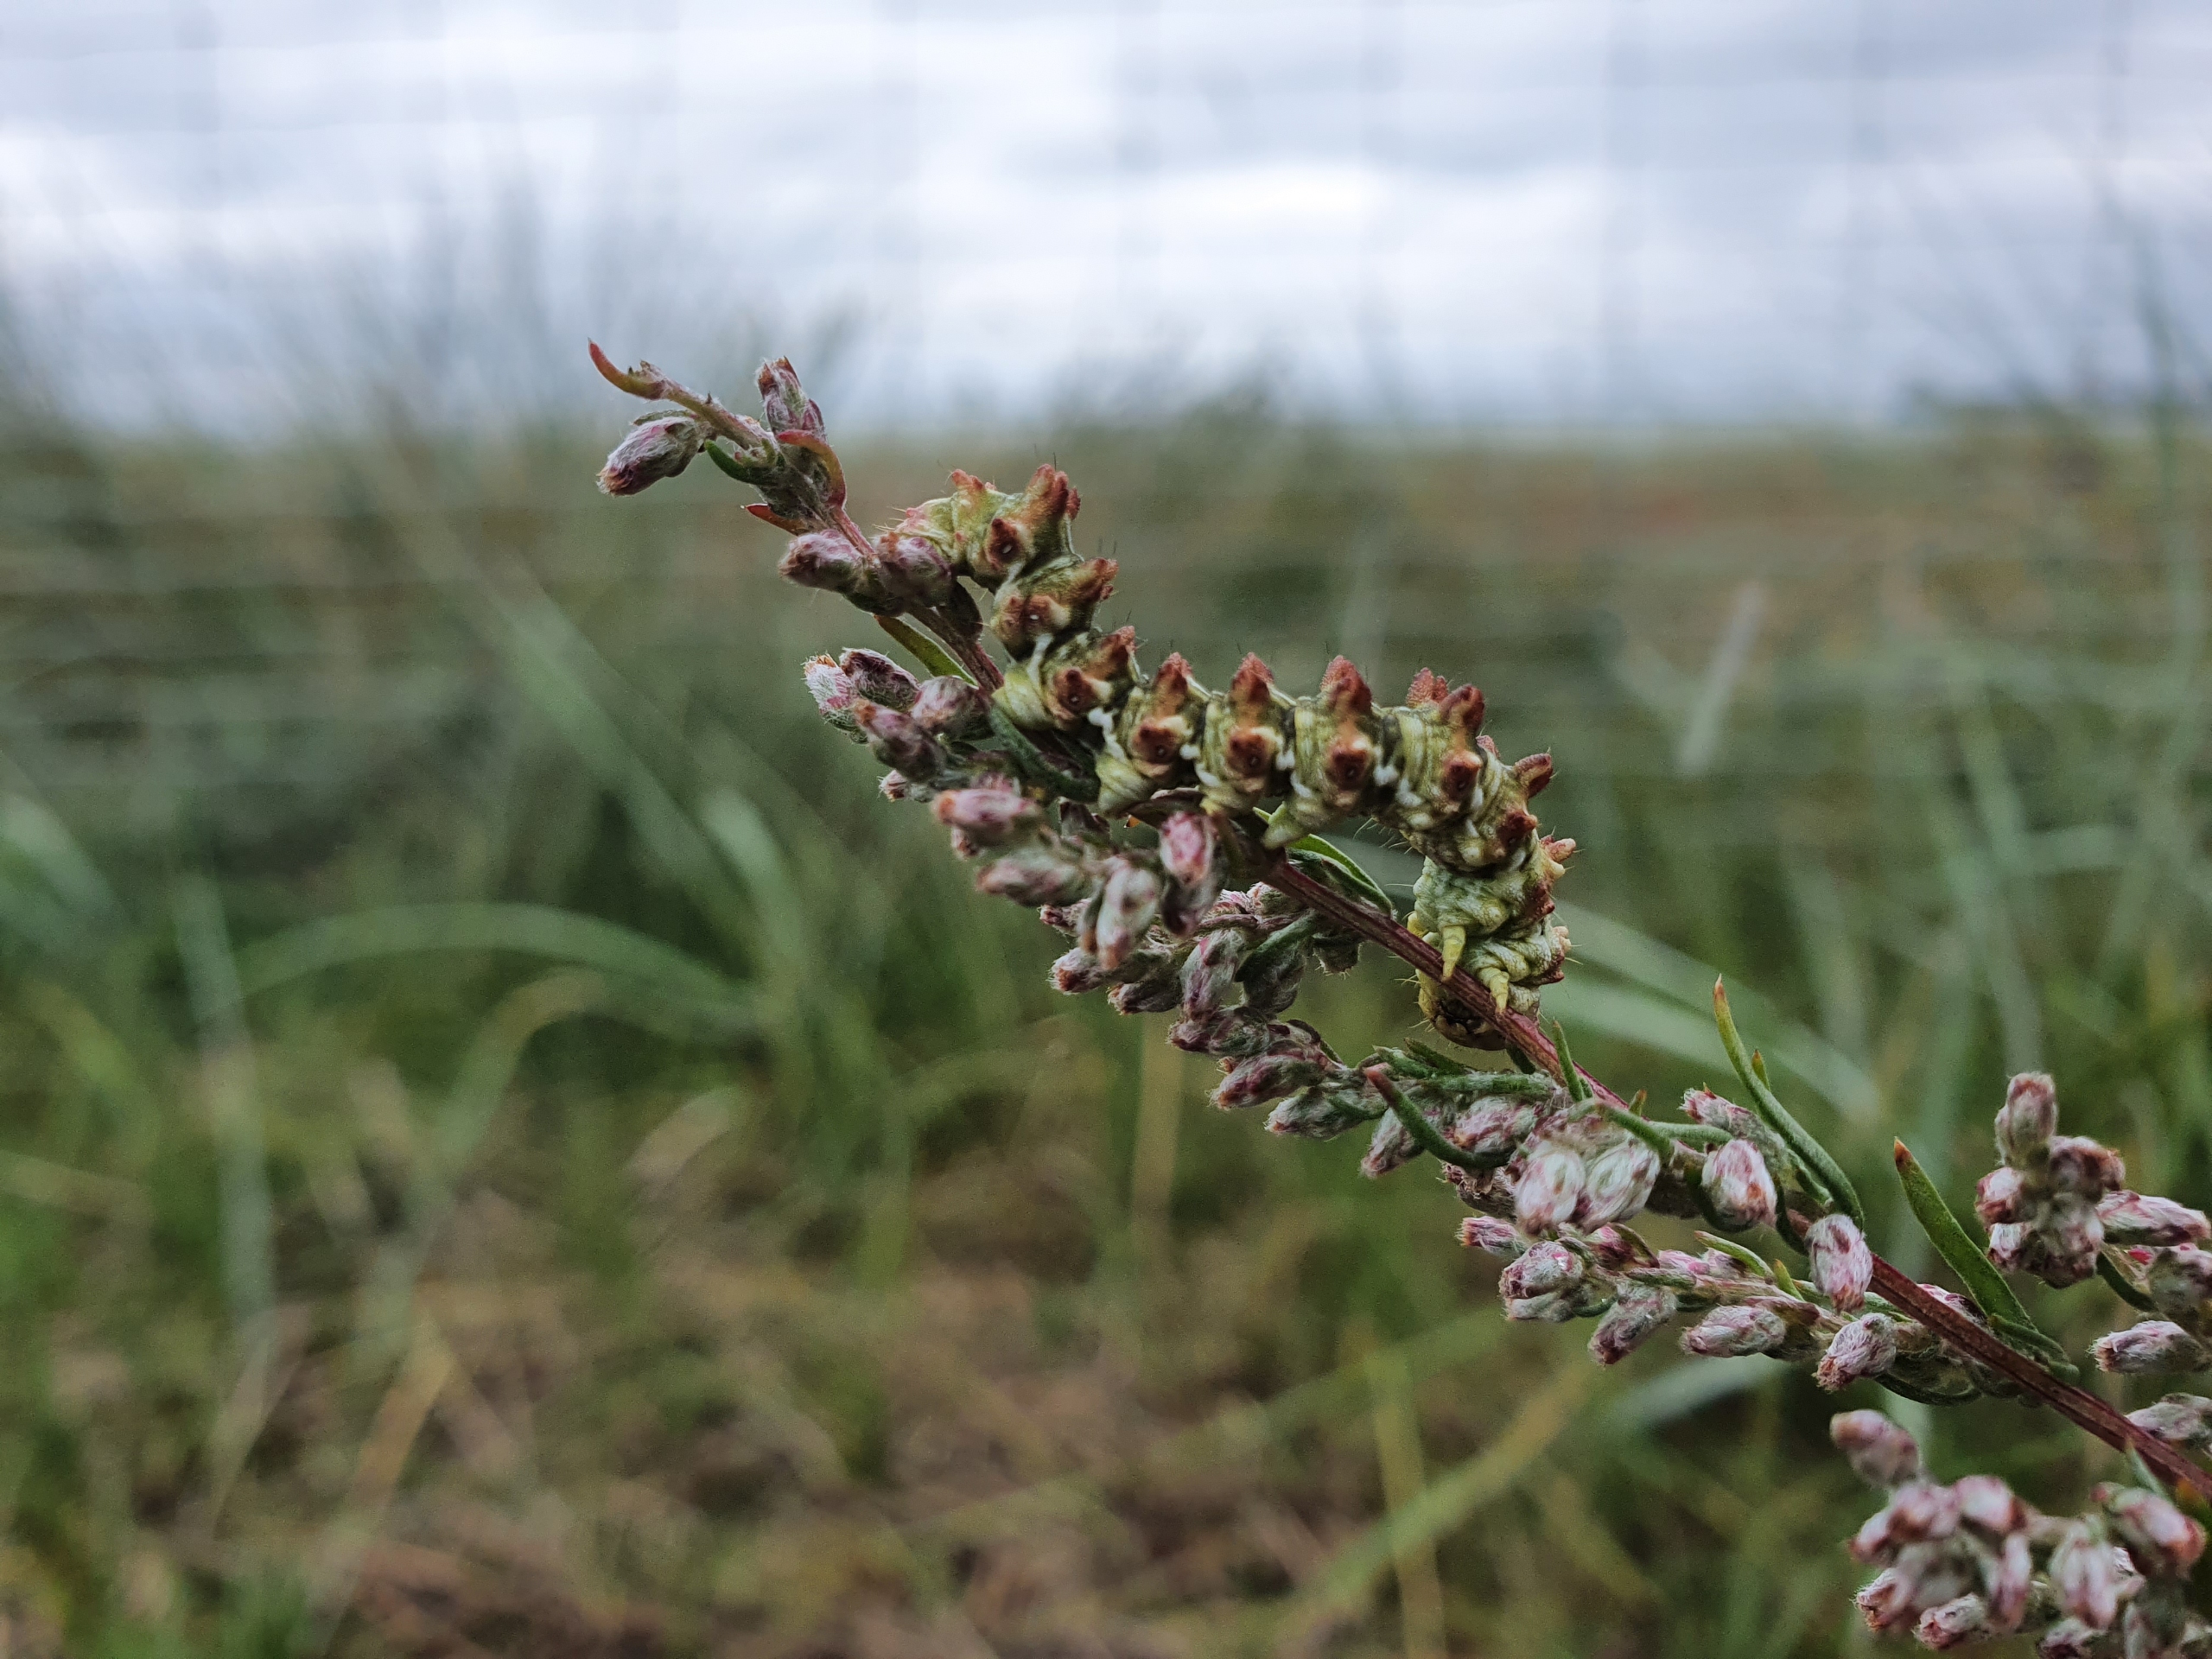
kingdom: Animalia
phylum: Arthropoda
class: Insecta
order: Lepidoptera
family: Noctuidae
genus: Cucullia
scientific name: Cucullia artemisiae
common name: Malurthætteugle
